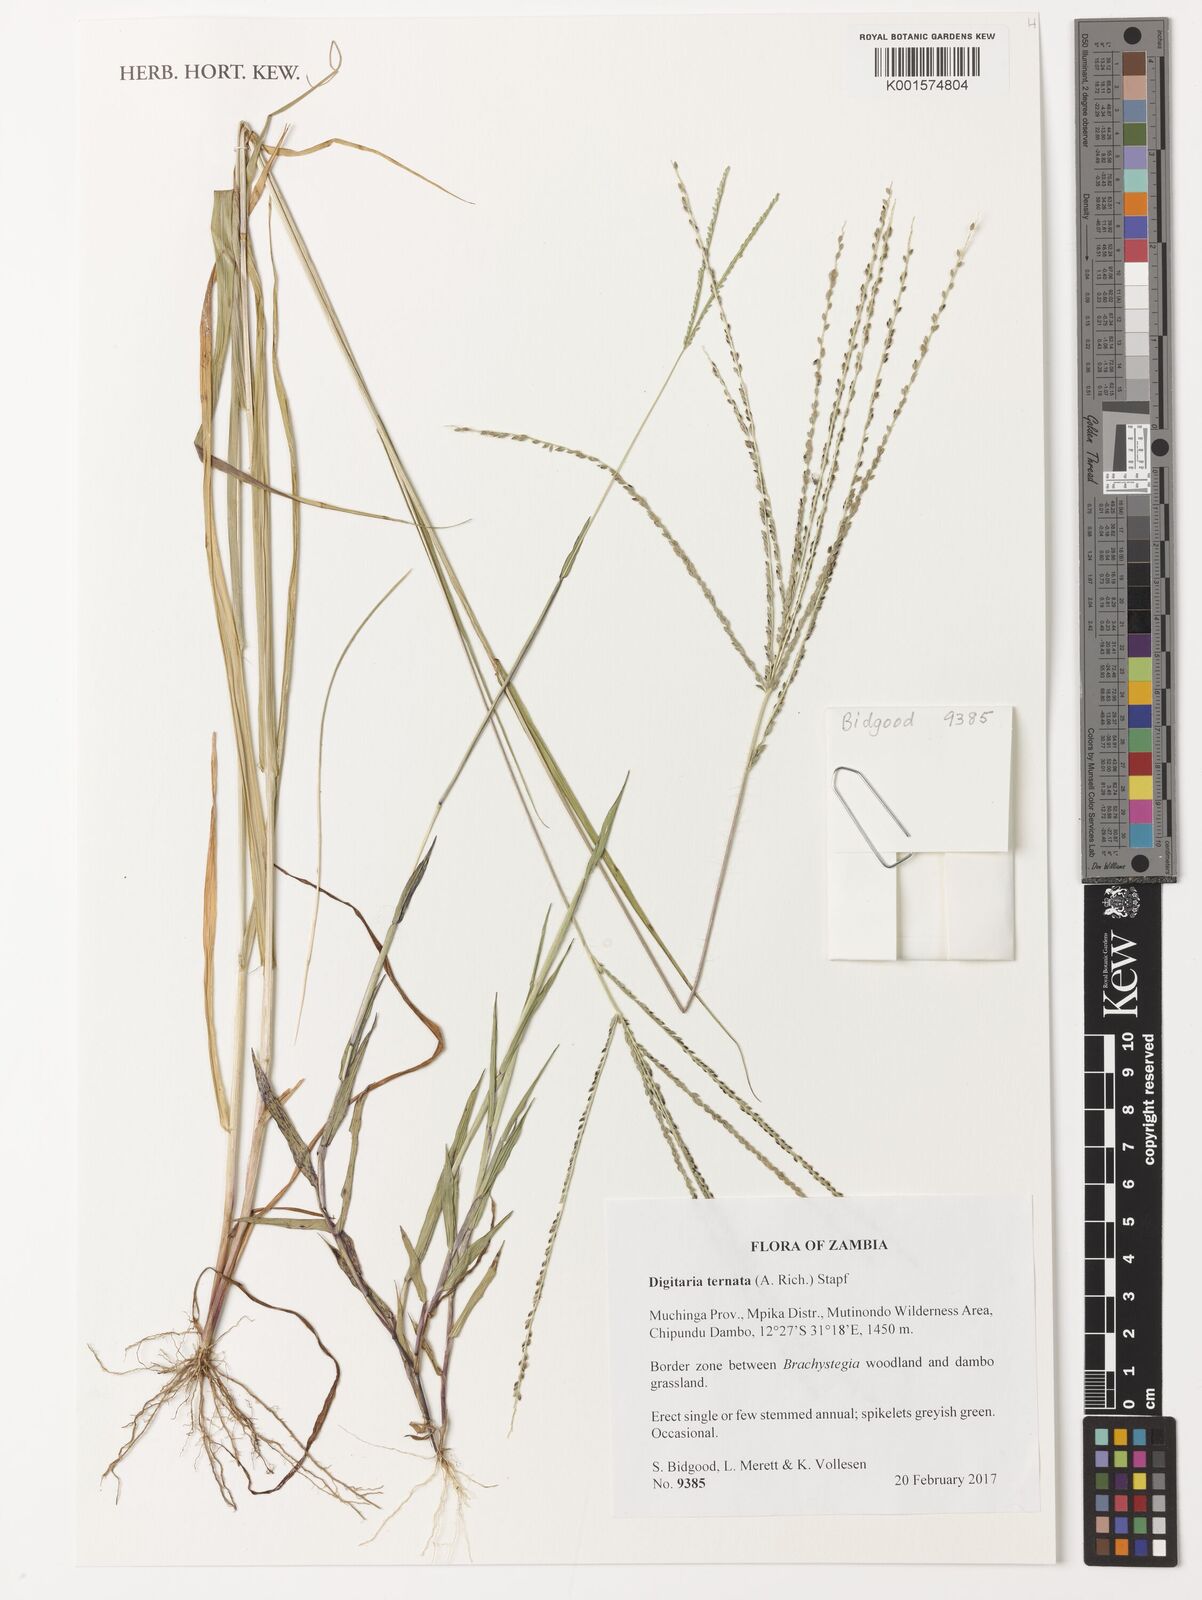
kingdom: Plantae
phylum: Tracheophyta
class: Liliopsida
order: Poales
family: Poaceae
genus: Digitaria
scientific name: Digitaria ternata
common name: Blackseed crabgrass
